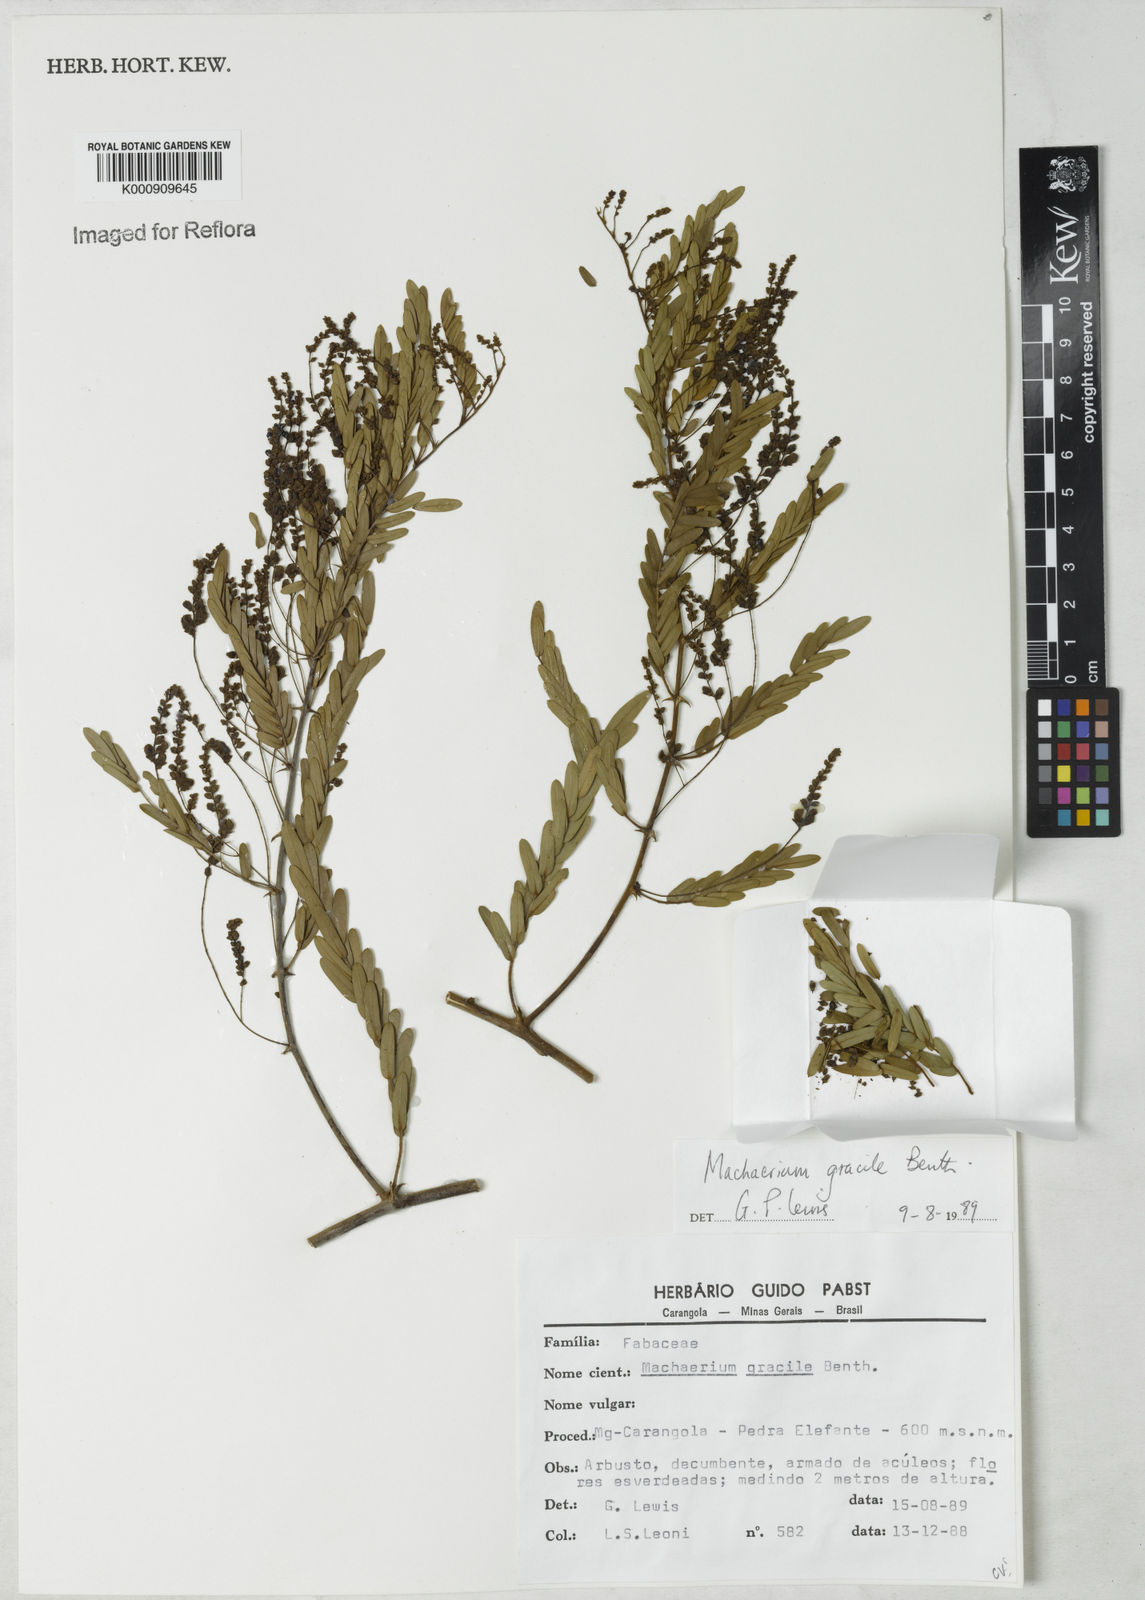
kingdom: Plantae
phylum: Tracheophyta
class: Magnoliopsida
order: Fabales
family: Fabaceae
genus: Machaerium
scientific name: Machaerium gracile
